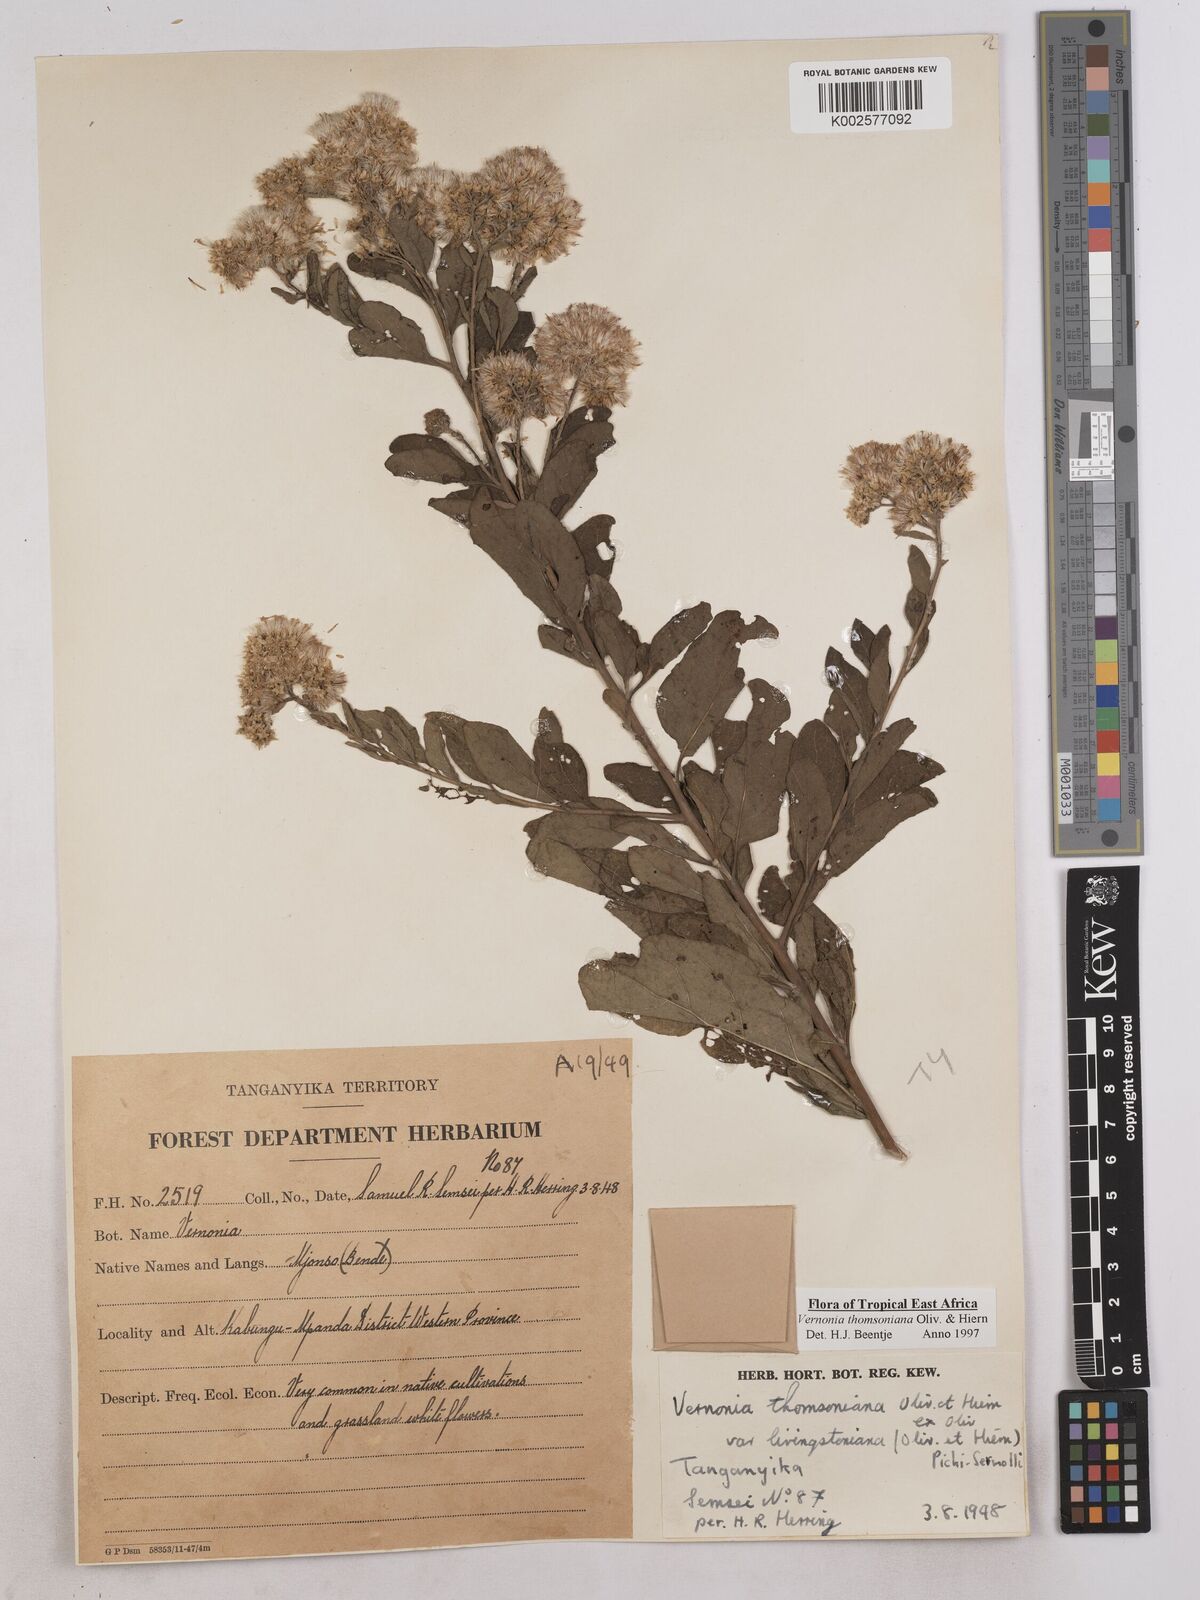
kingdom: Plantae
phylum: Tracheophyta
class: Magnoliopsida
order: Asterales
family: Asteraceae
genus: Gymnanthemum
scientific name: Gymnanthemum thomsonianum
